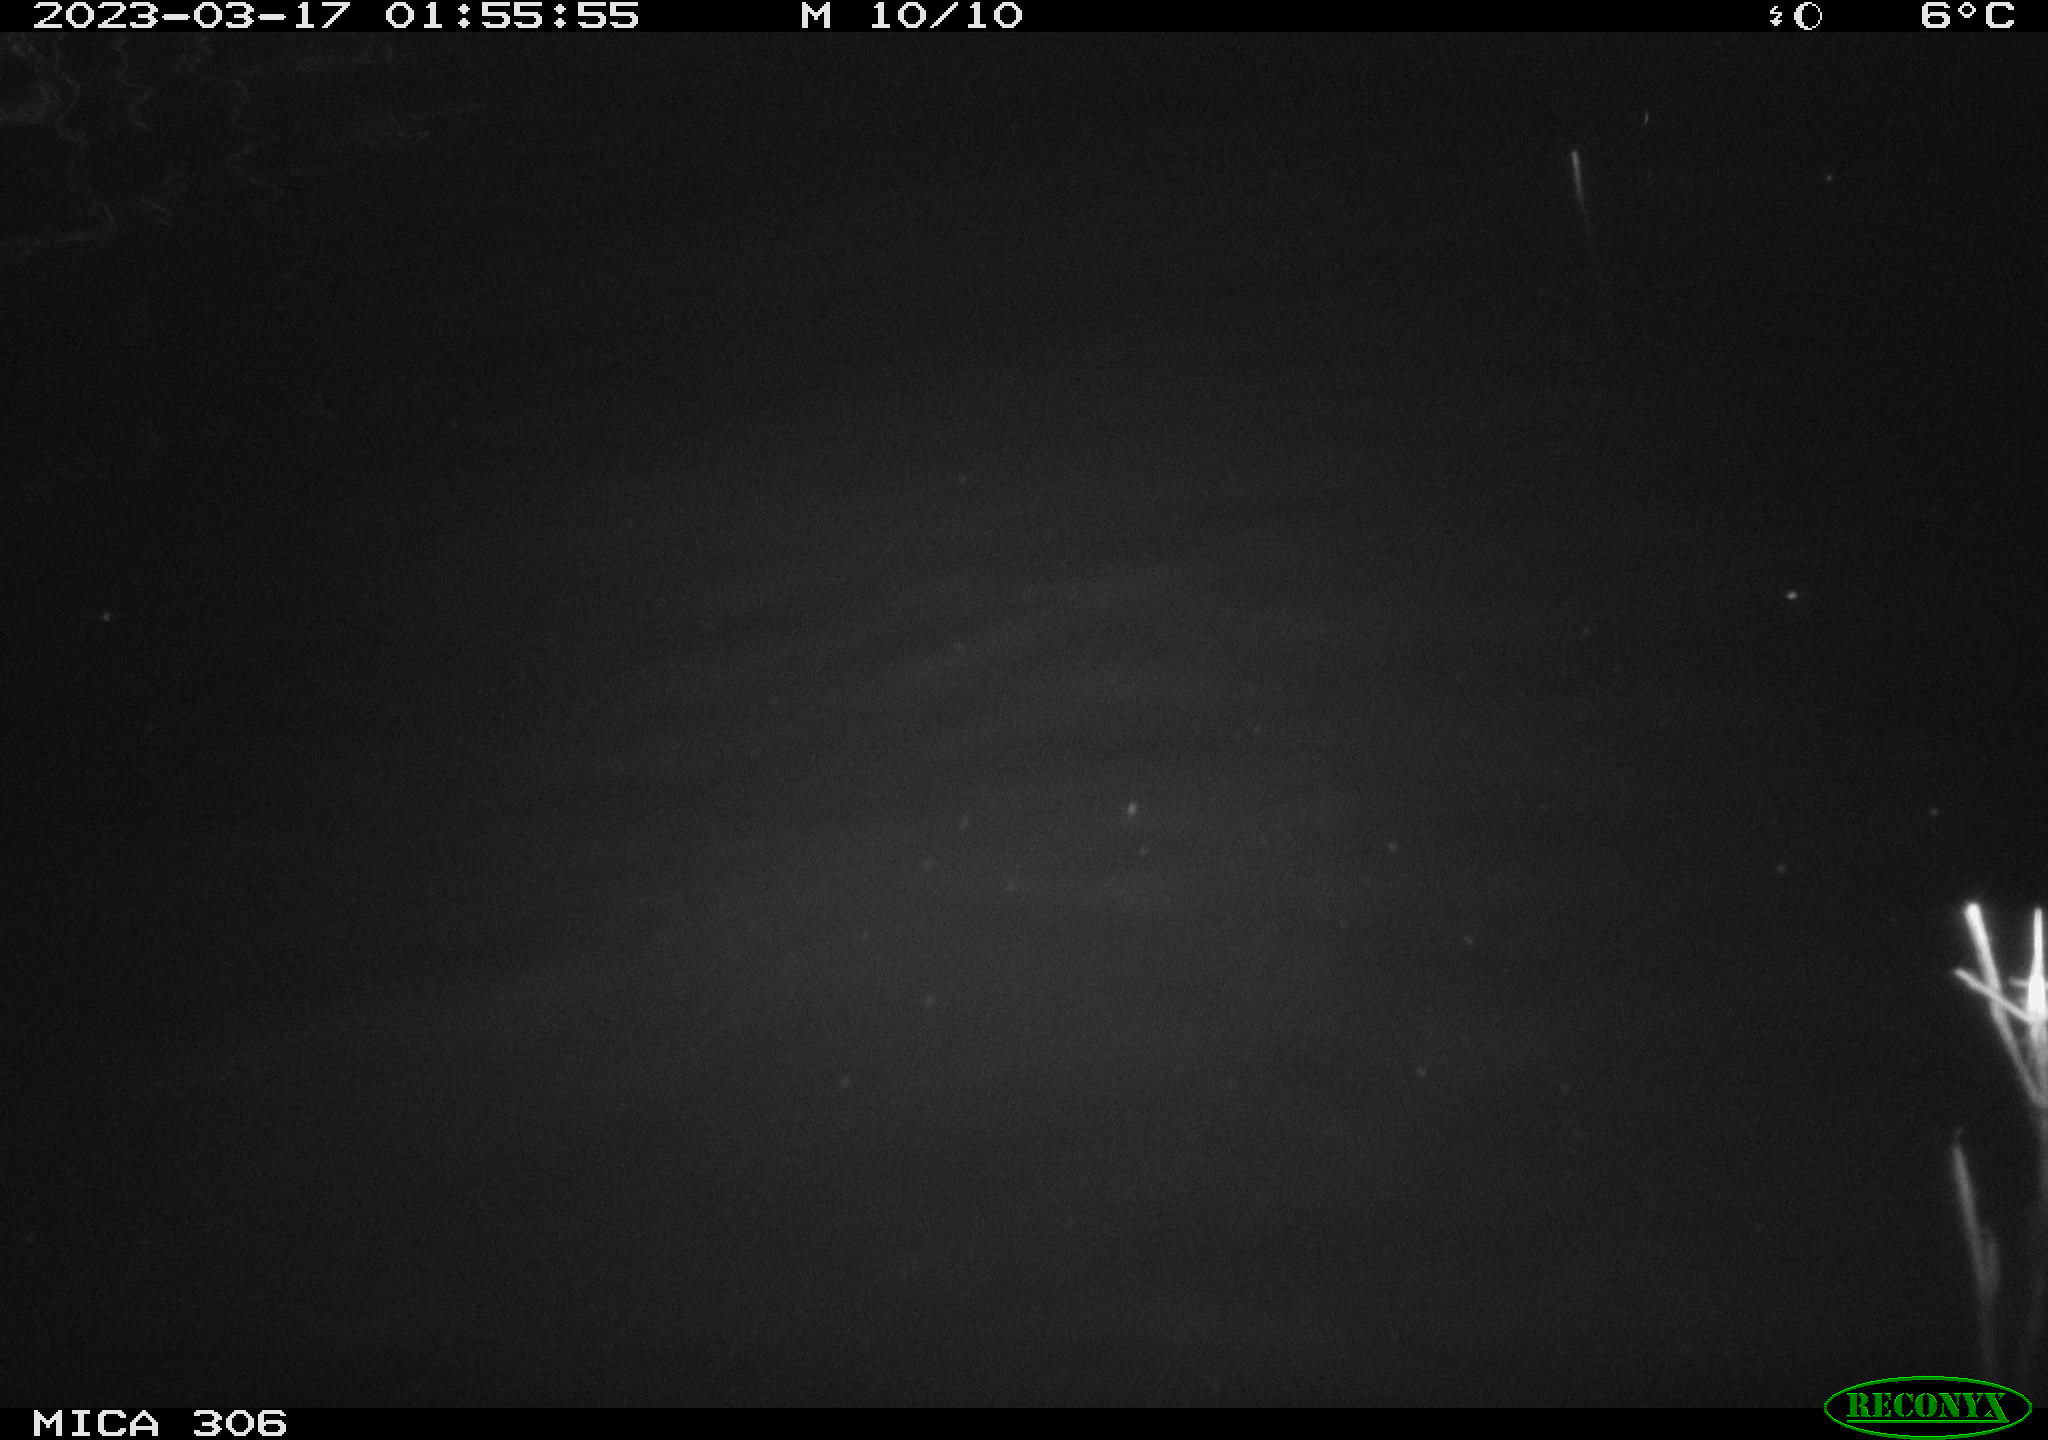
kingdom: Animalia
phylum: Chordata
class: Mammalia
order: Rodentia
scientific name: Rodentia
